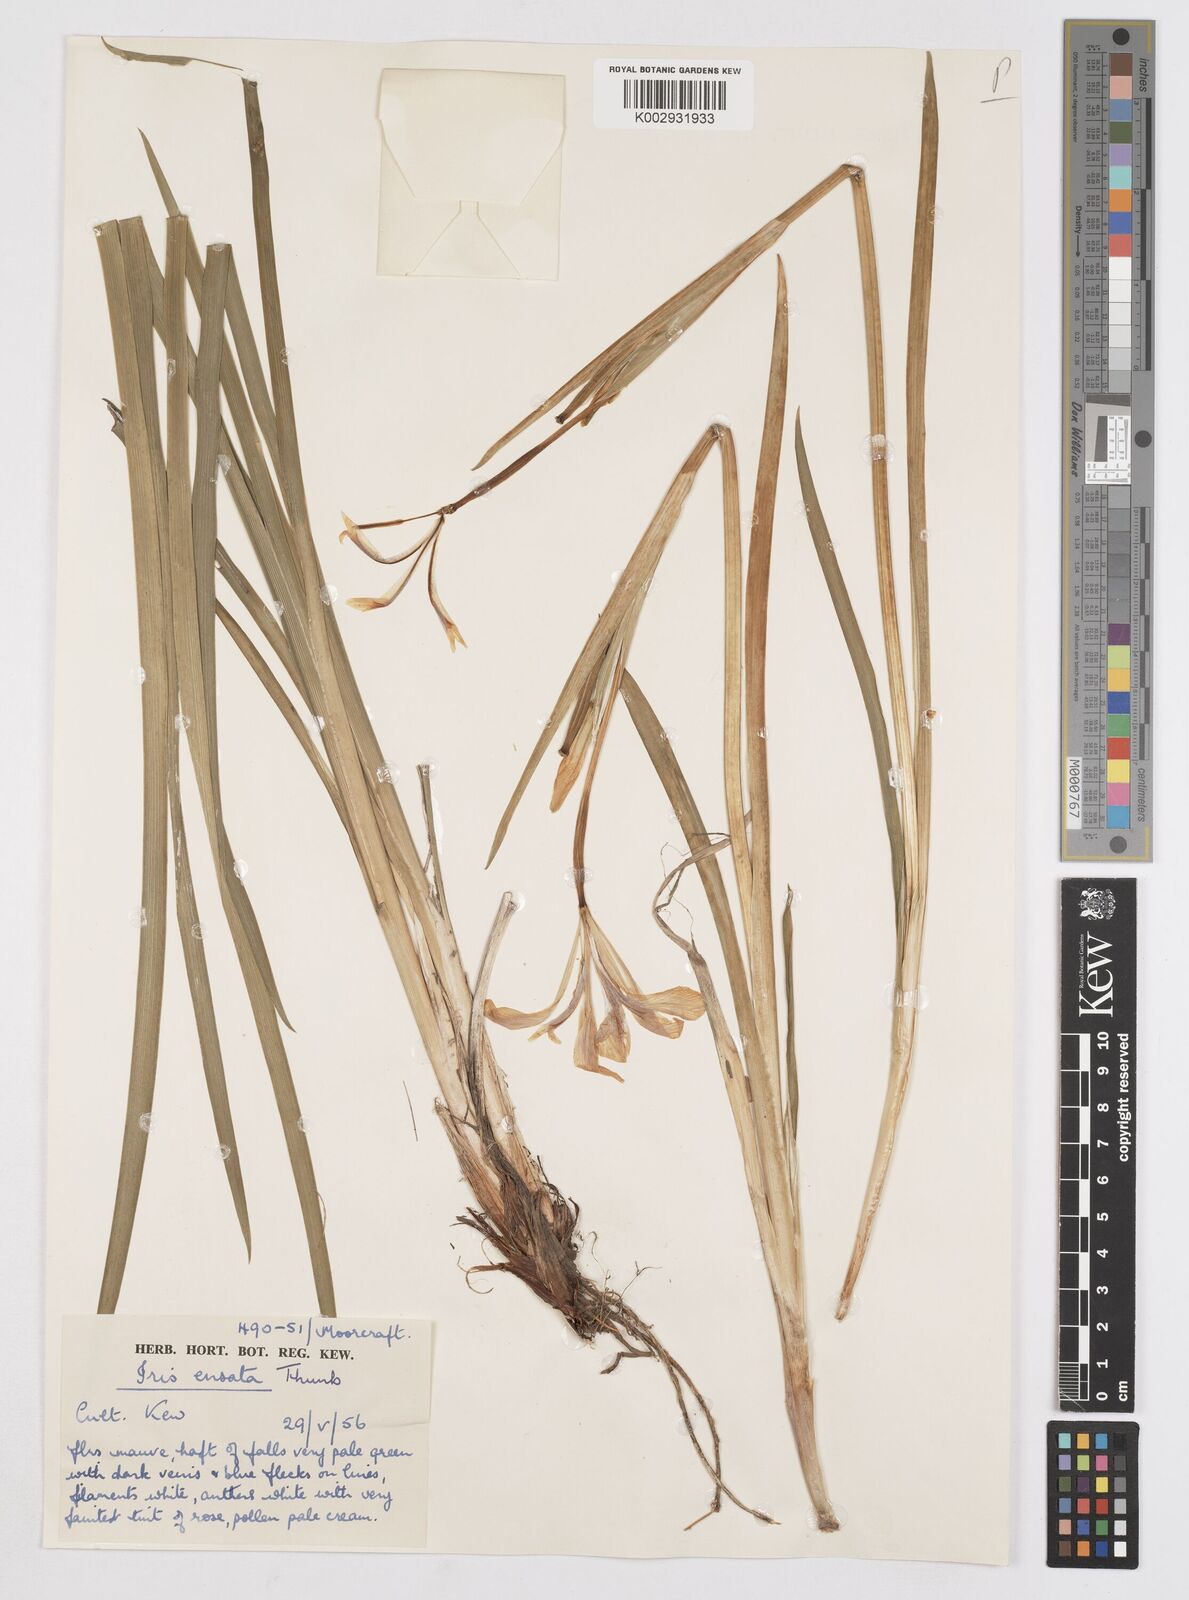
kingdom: Plantae
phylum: Tracheophyta
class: Liliopsida
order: Asparagales
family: Iridaceae
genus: Iris
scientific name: Iris ensata
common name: Beaked iris
